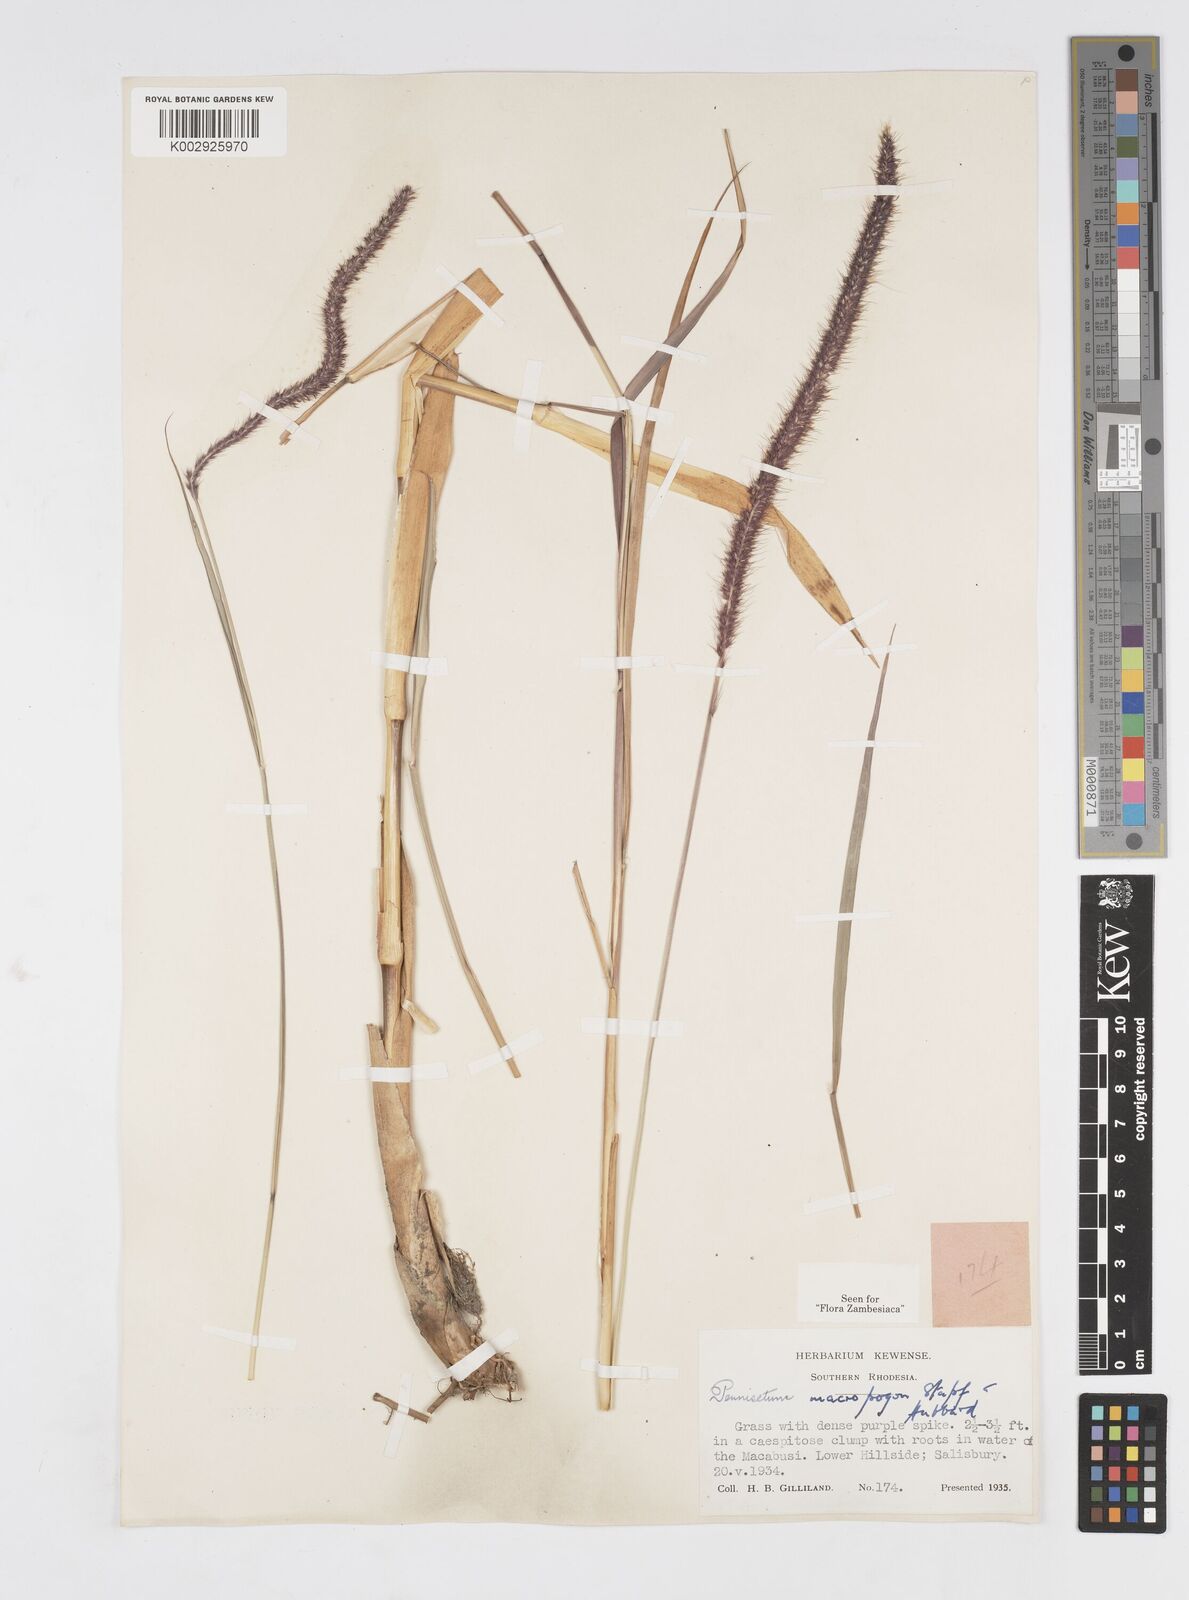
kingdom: Plantae
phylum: Tracheophyta
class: Liliopsida
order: Poales
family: Poaceae
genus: Cenchrus
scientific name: Cenchrus caudatus
